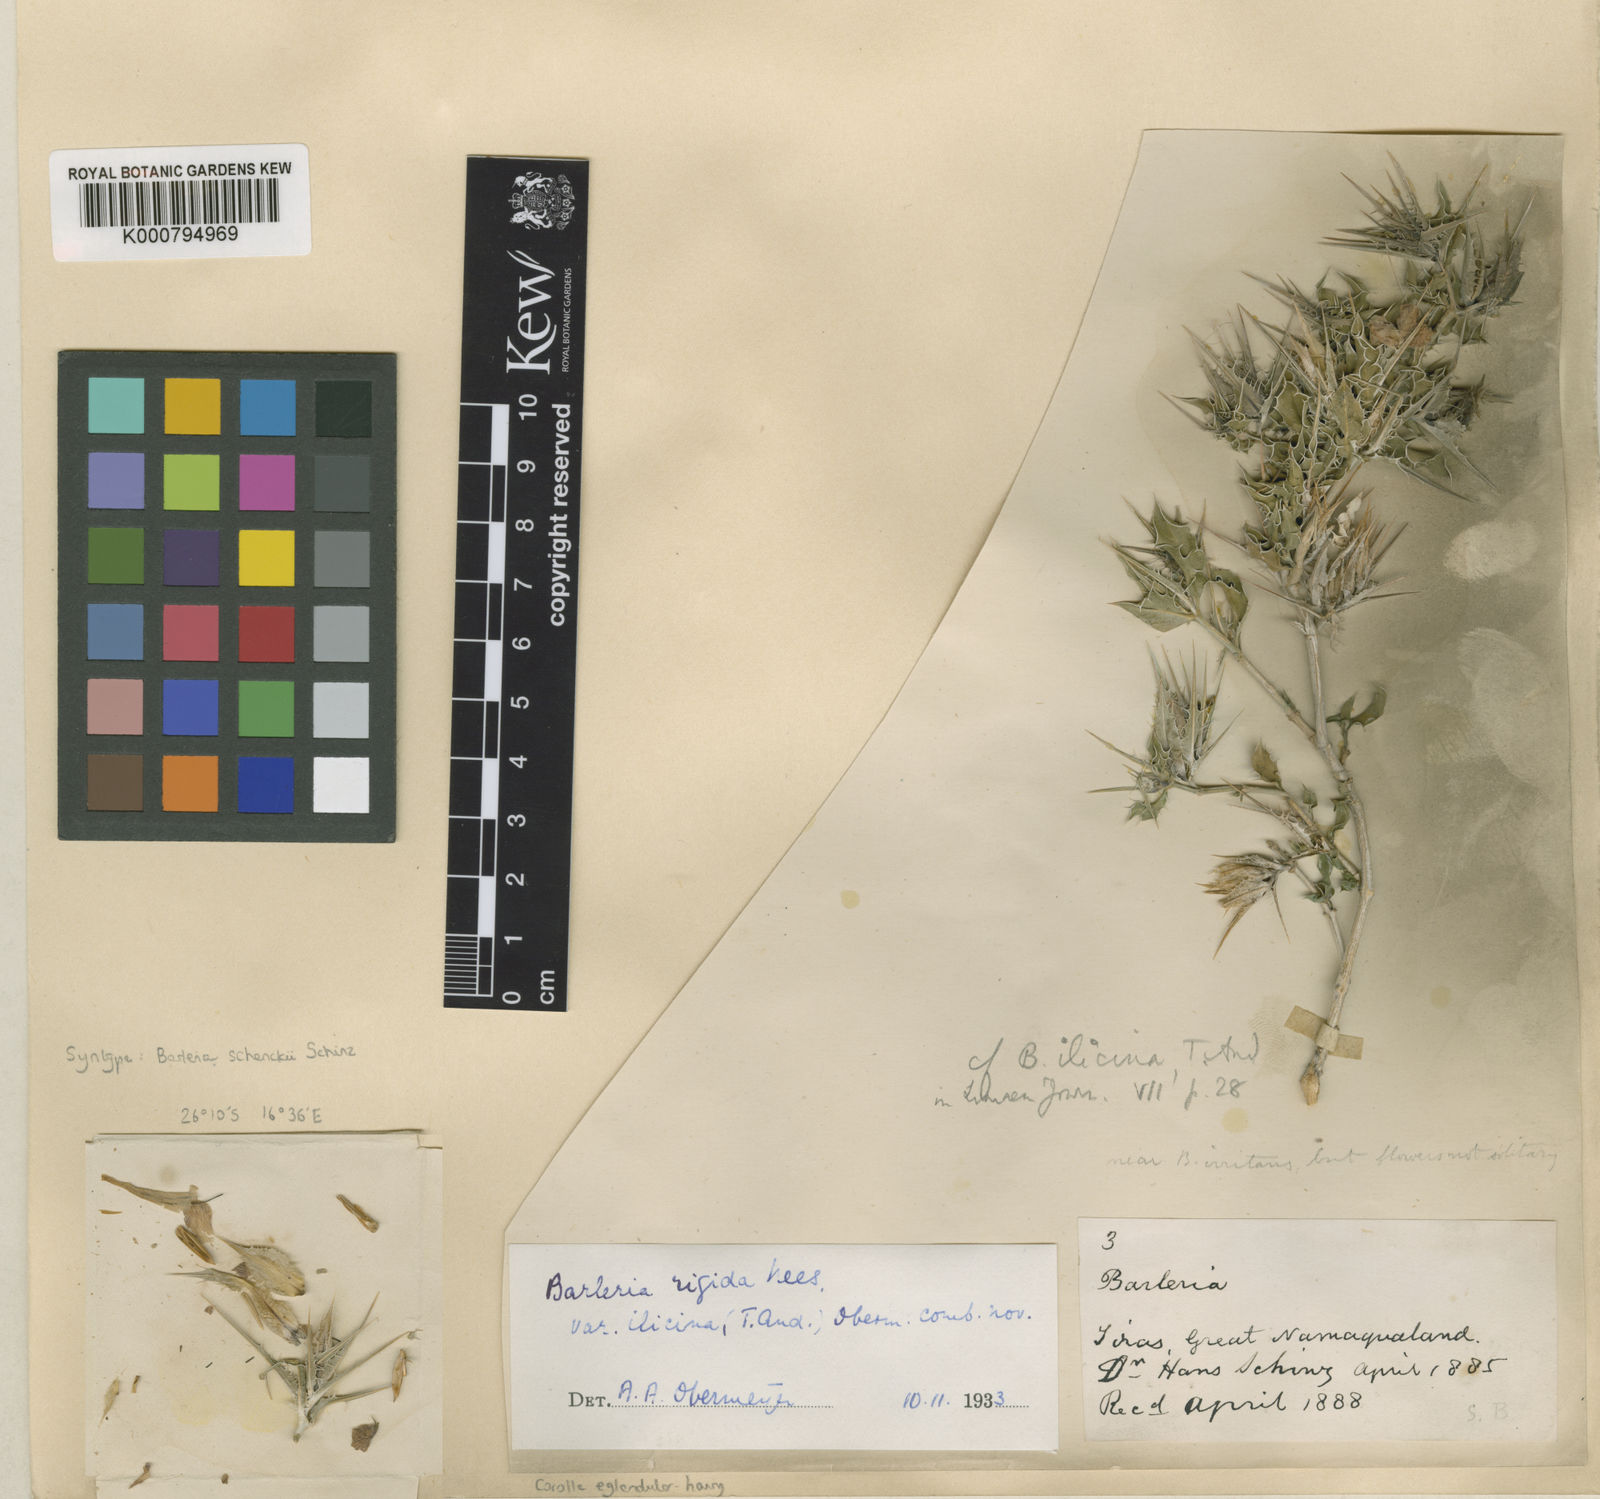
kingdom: Plantae
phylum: Tracheophyta
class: Magnoliopsida
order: Lamiales
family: Acanthaceae
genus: Barleria
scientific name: Barleria rigida
